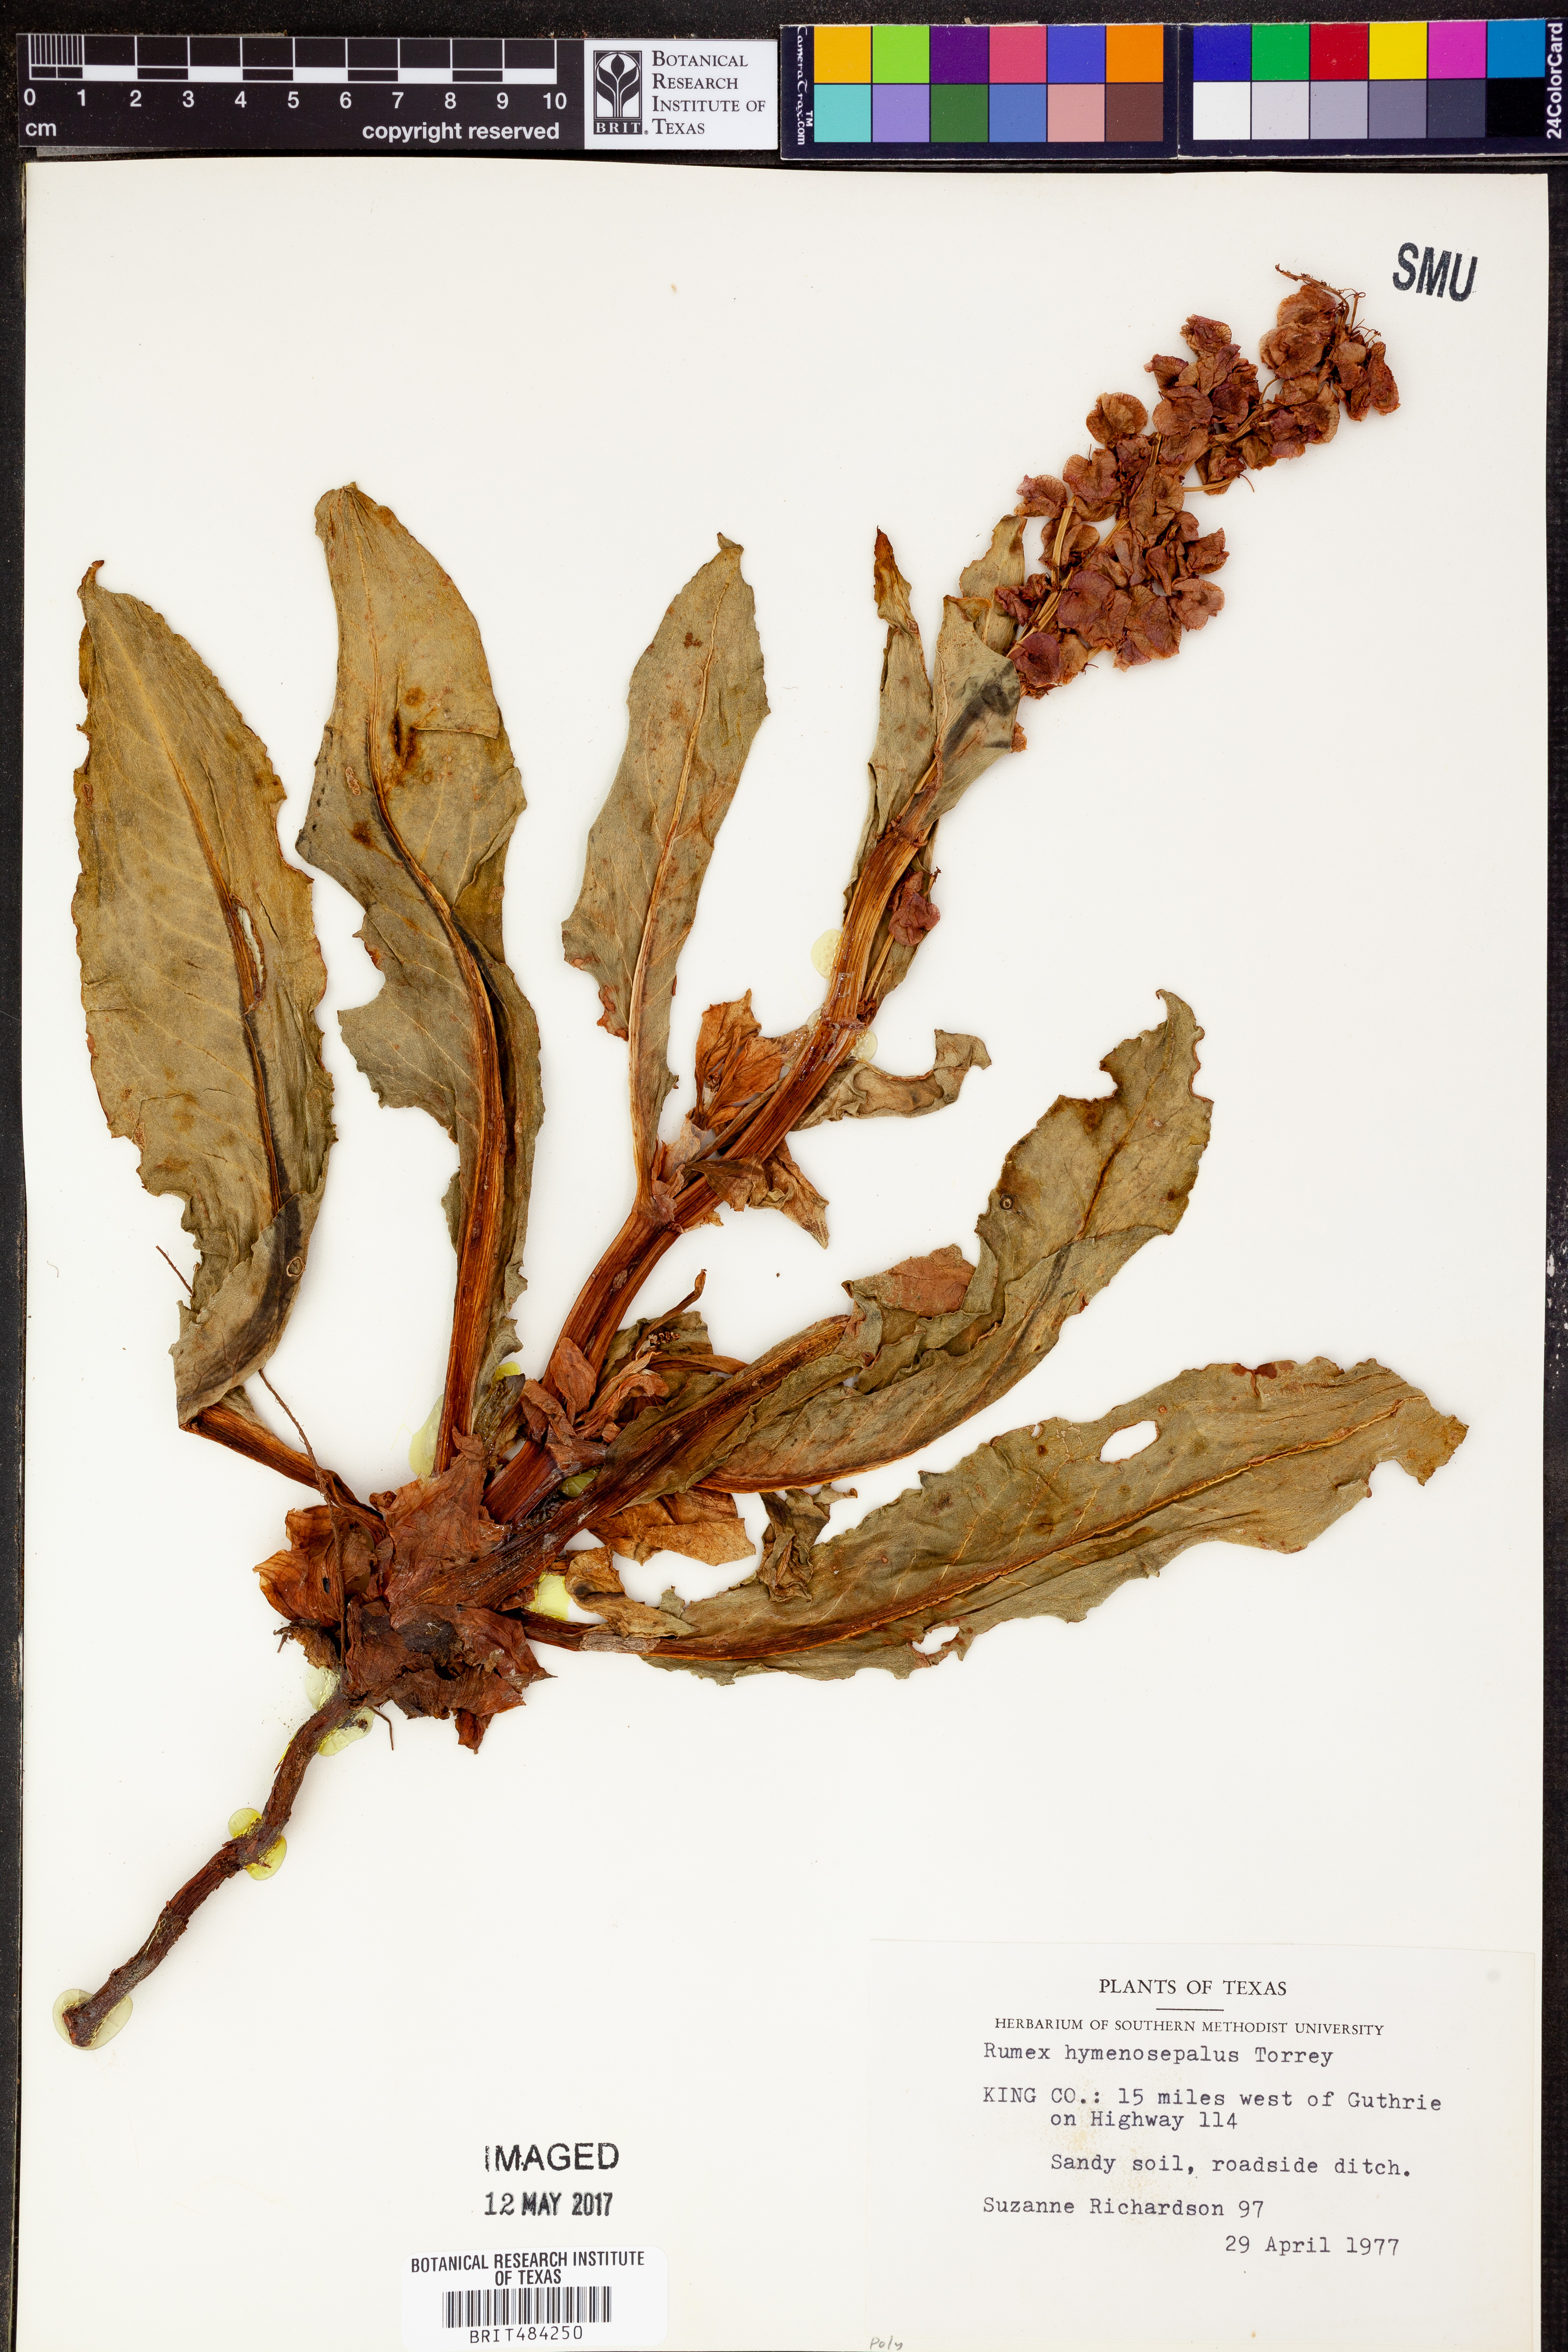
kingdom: Plantae
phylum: Tracheophyta
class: Magnoliopsida
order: Caryophyllales
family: Polygonaceae
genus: Rumex
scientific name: Rumex hymenosepalus
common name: Ganagra
